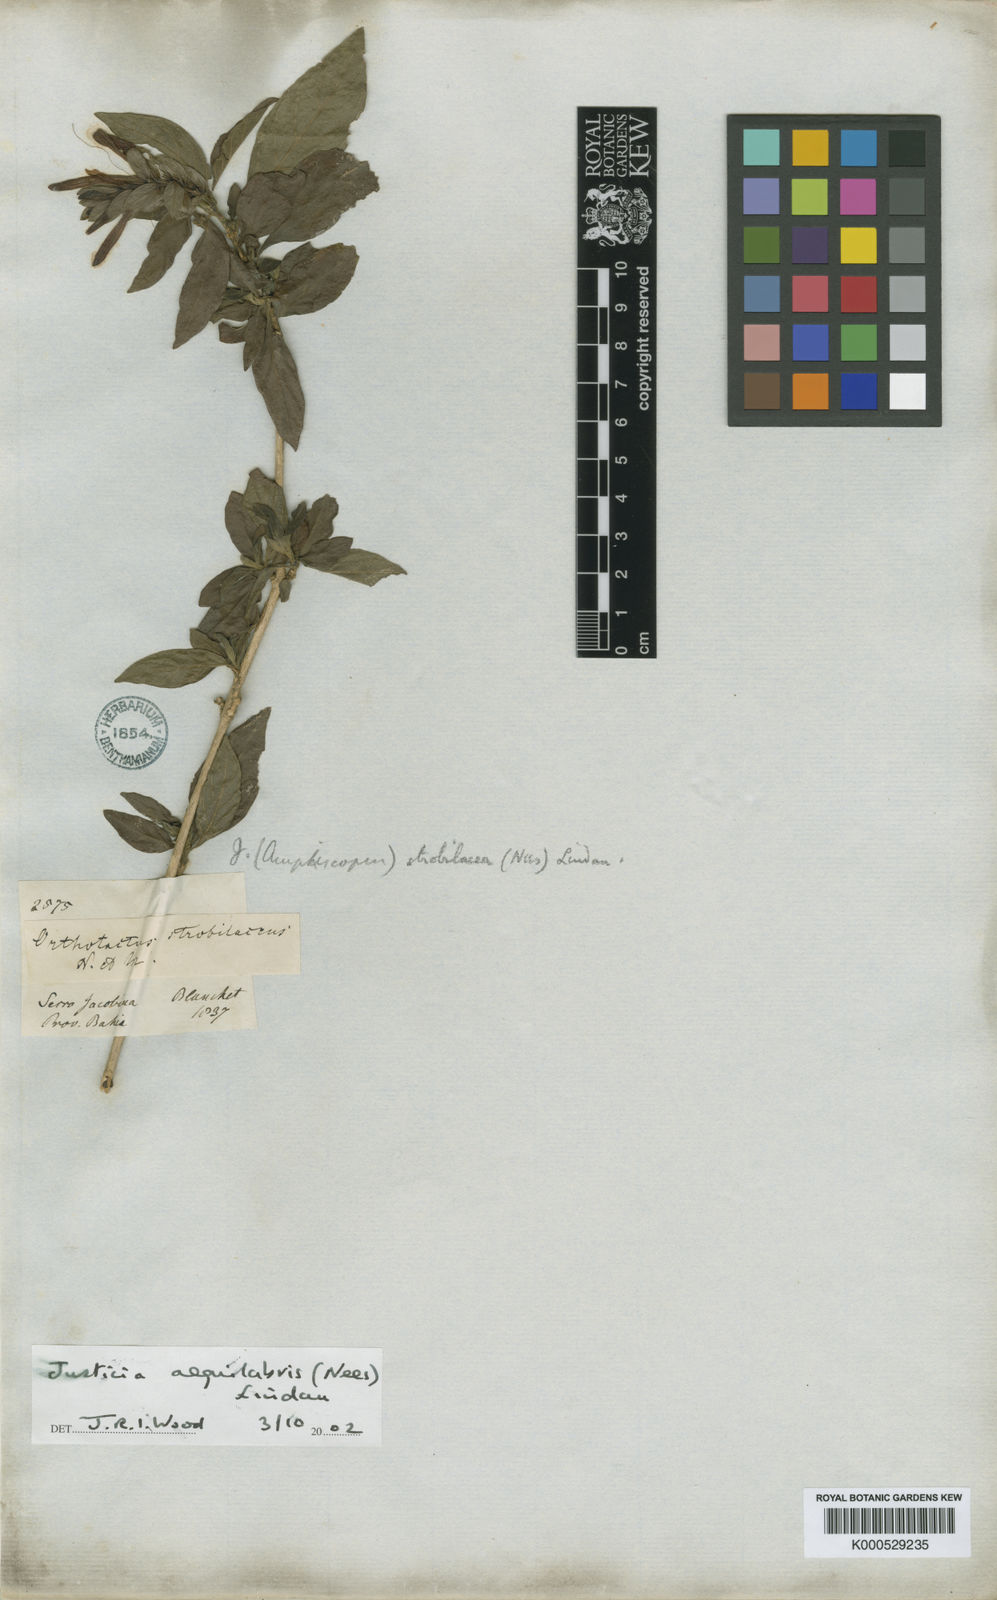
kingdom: Plantae
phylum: Tracheophyta
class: Magnoliopsida
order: Lamiales
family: Acanthaceae
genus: Justicia
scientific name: Justicia aequilabris
